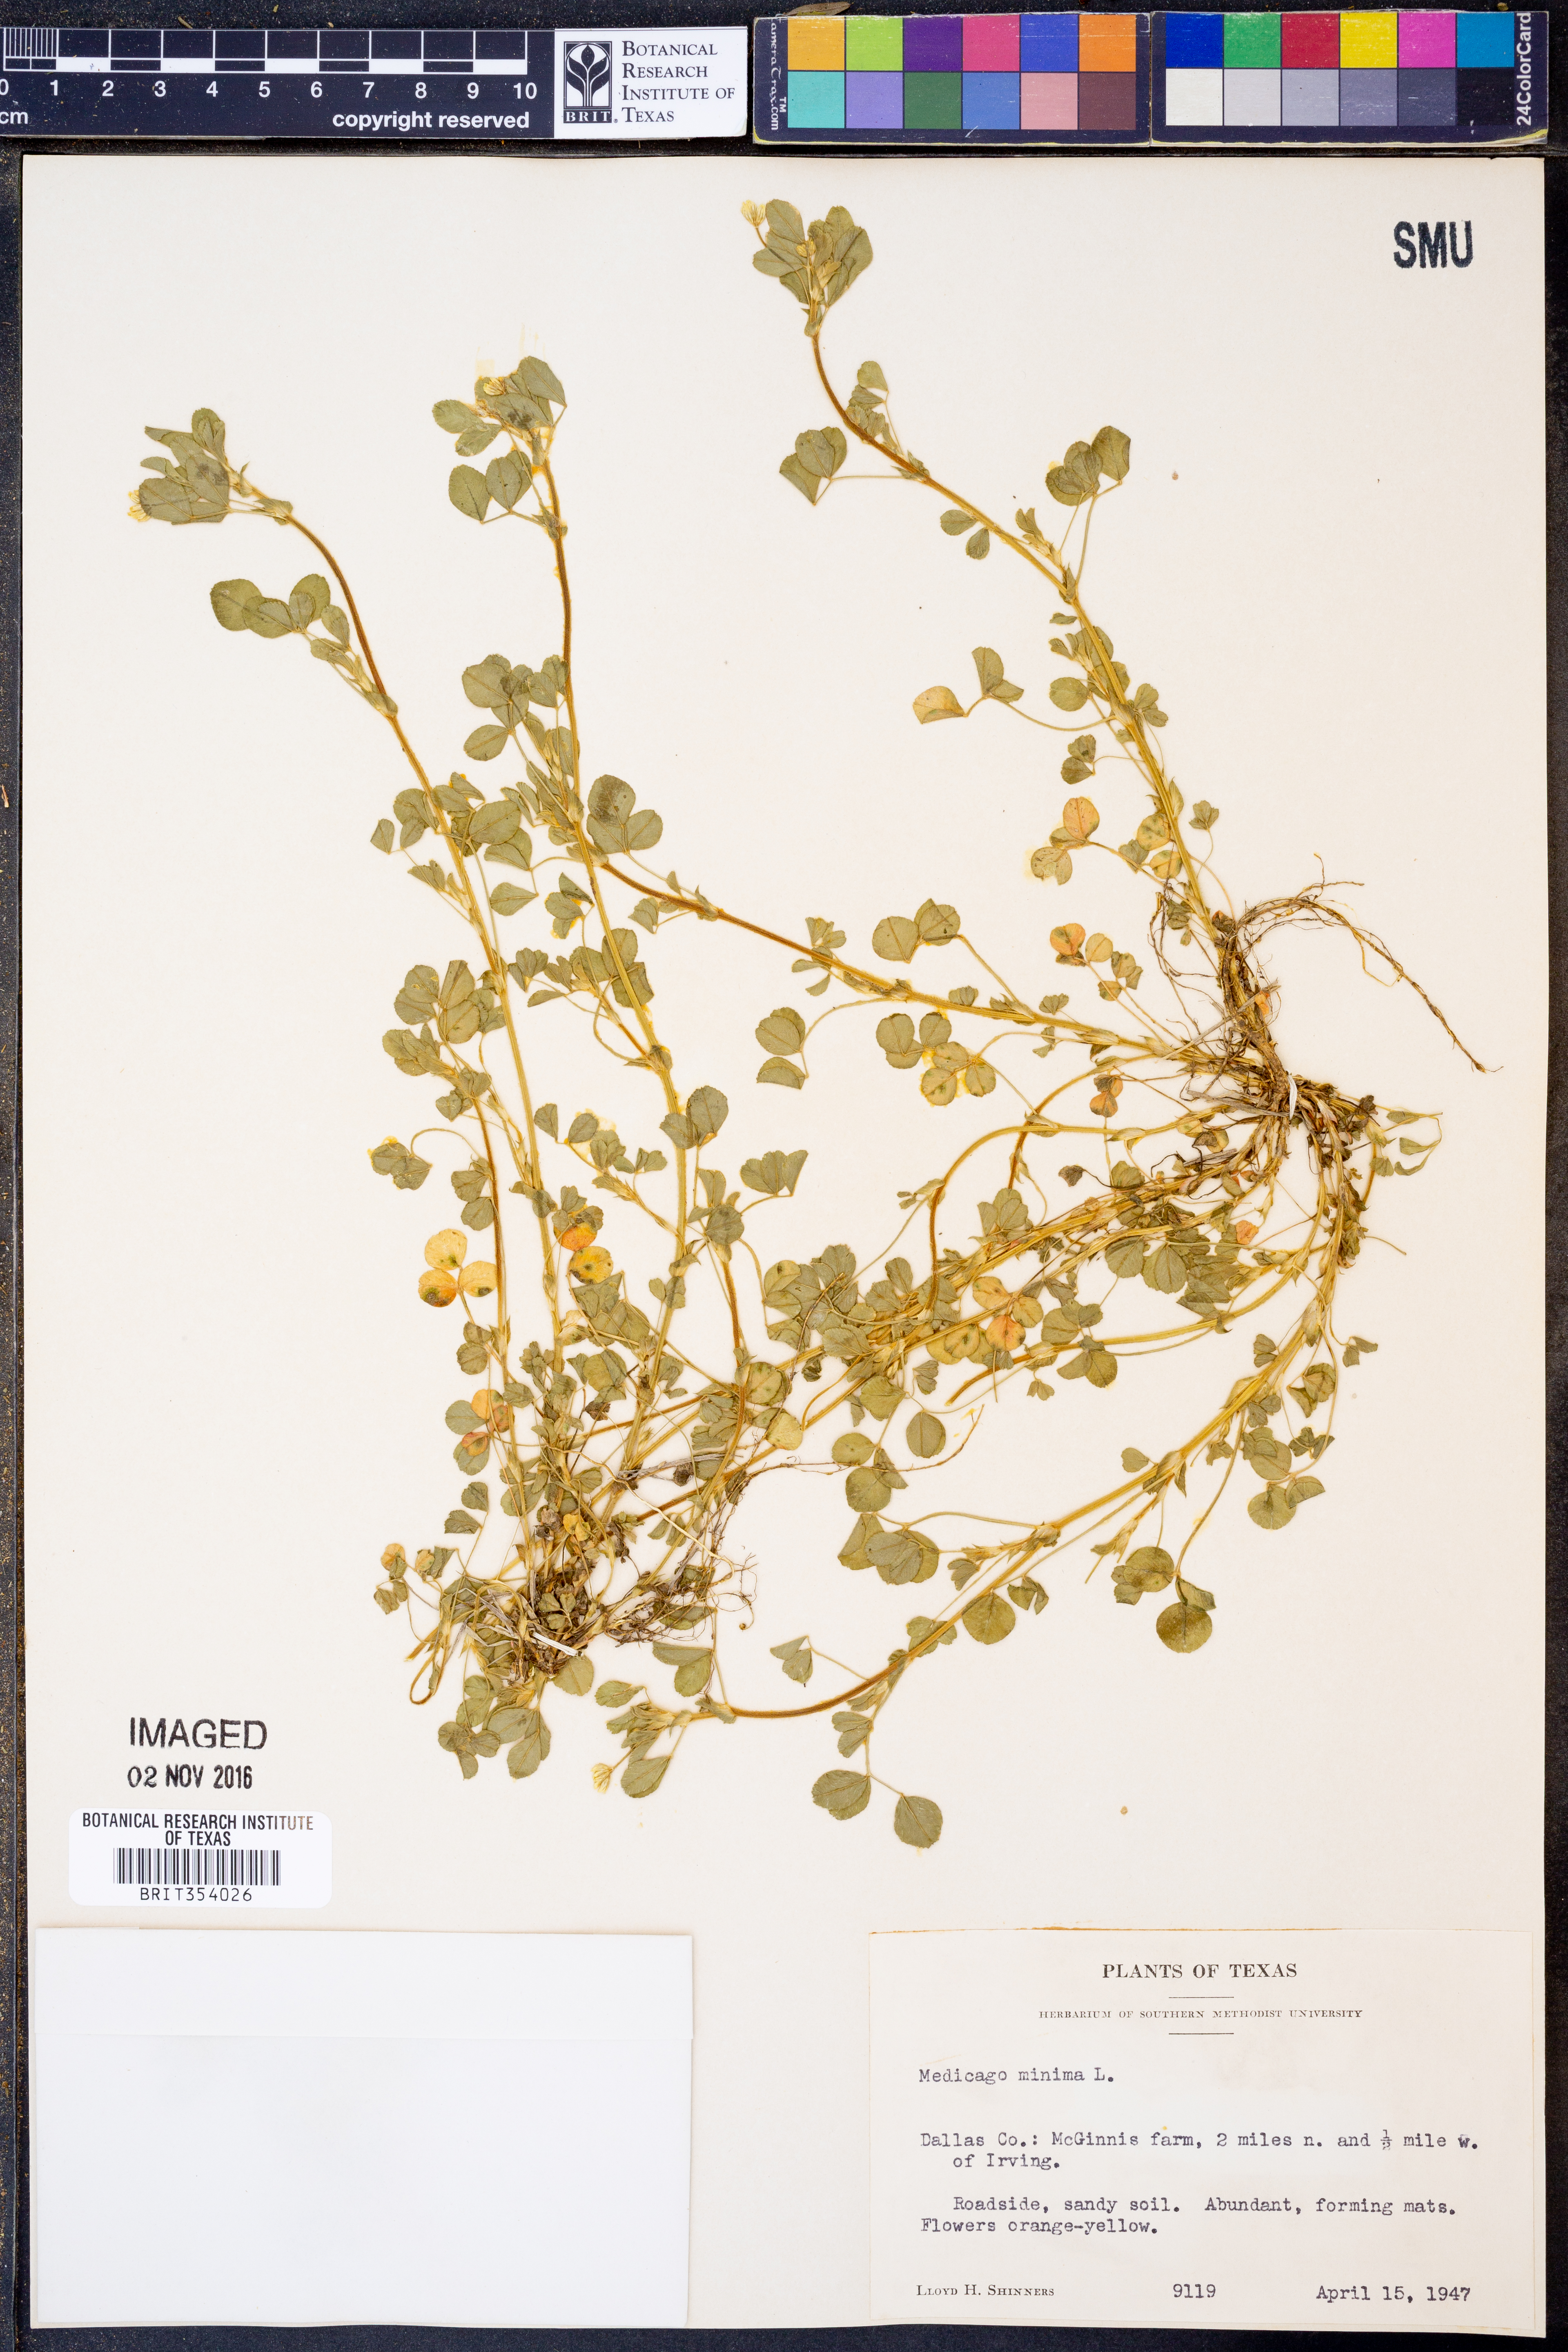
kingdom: Plantae
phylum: Tracheophyta
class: Magnoliopsida
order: Fabales
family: Fabaceae
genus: Medicago
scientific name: Medicago minima
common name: Little bur-clover
